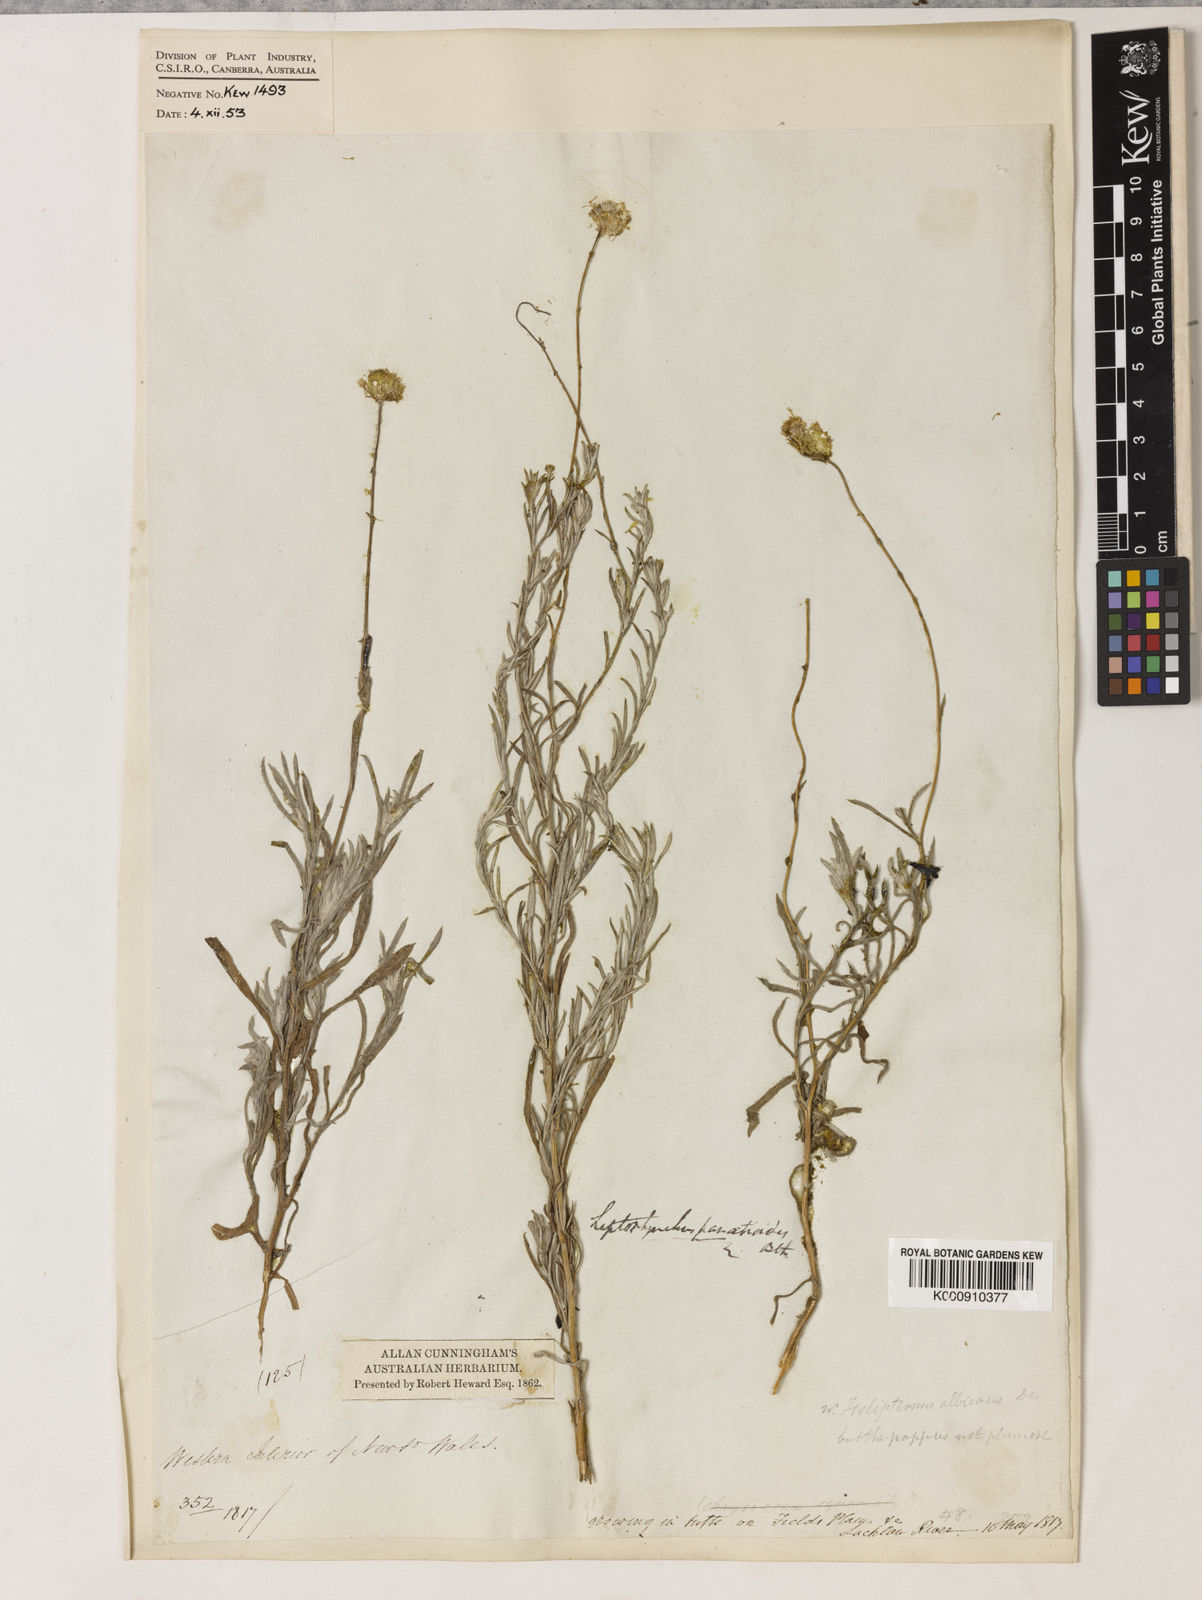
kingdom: Plantae
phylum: Tracheophyta
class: Magnoliopsida
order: Asterales
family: Asteraceae
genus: Leiocarpa
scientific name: Leiocarpa panaetioides
